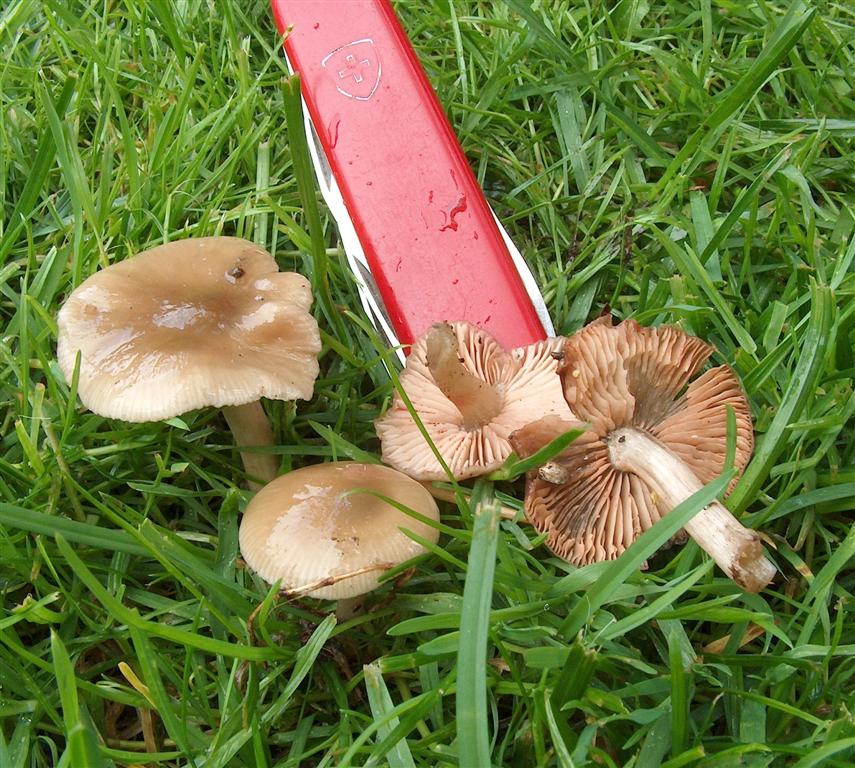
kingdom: Fungi
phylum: Basidiomycota
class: Agaricomycetes
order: Agaricales
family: Entolomataceae
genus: Entoloma
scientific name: Entoloma sordidulum
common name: smudsig rødblad
